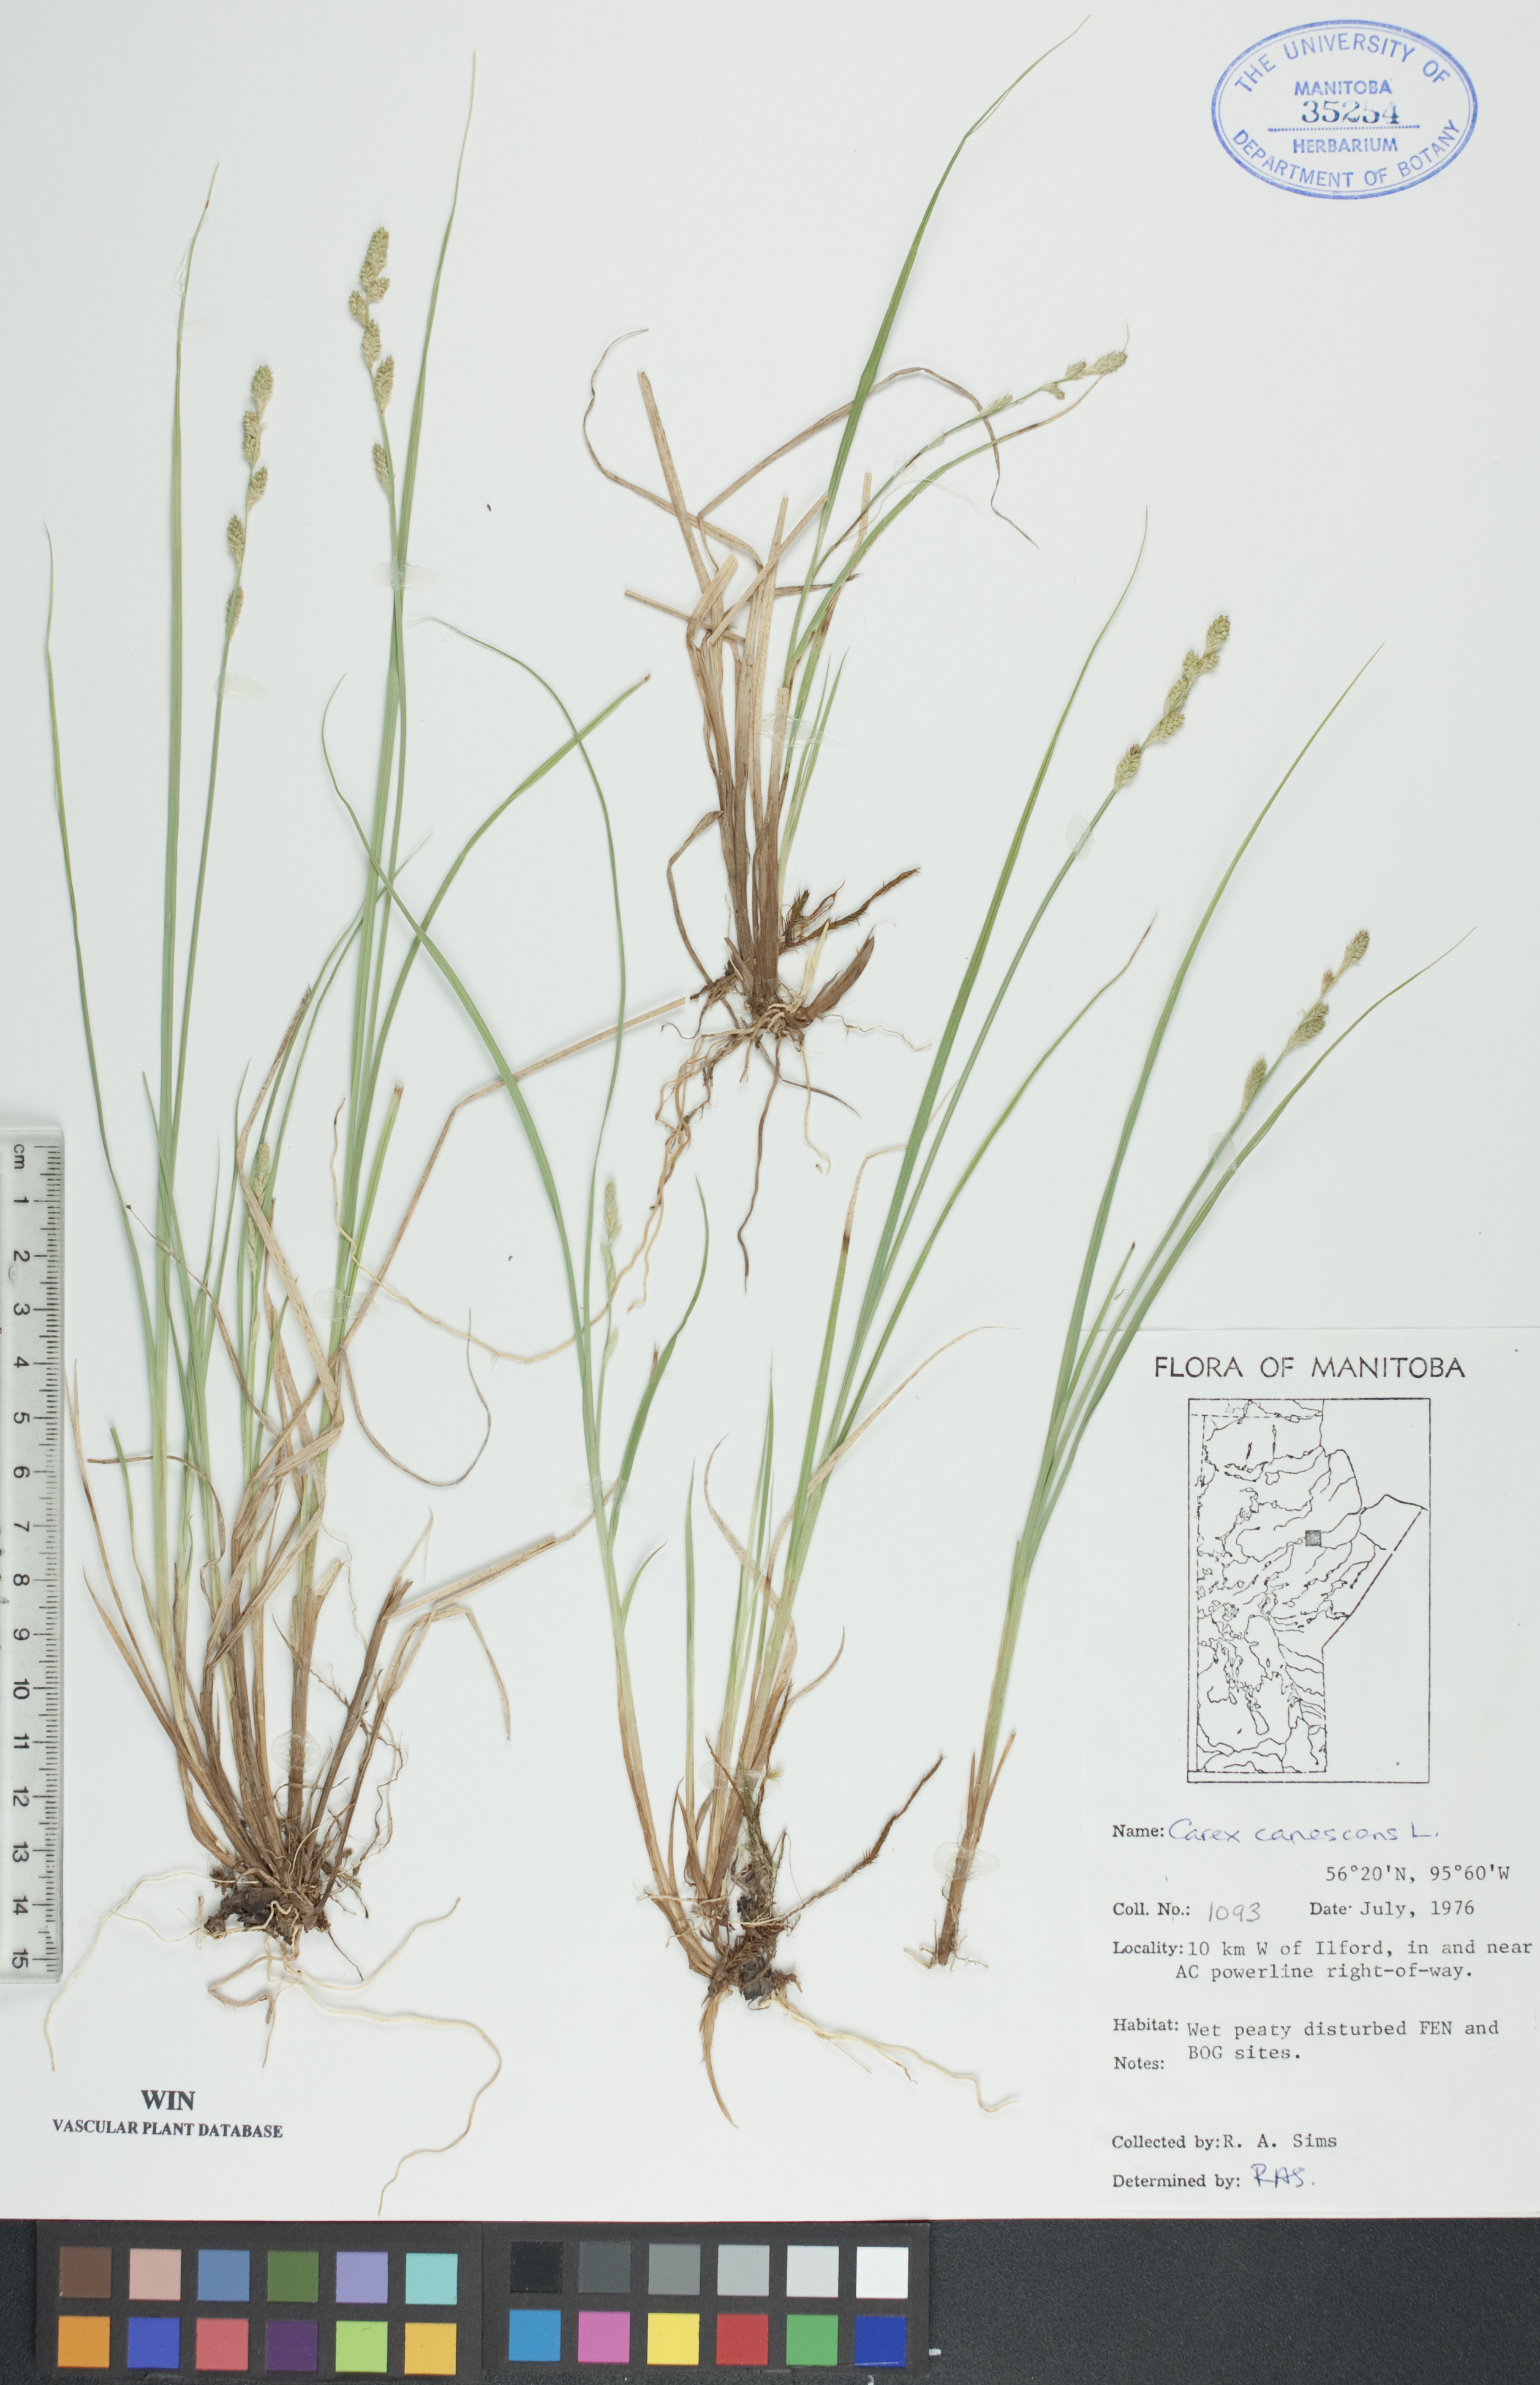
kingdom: Plantae
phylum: Tracheophyta
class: Liliopsida
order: Poales
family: Cyperaceae
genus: Carex
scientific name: Carex canescens
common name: White sedge
